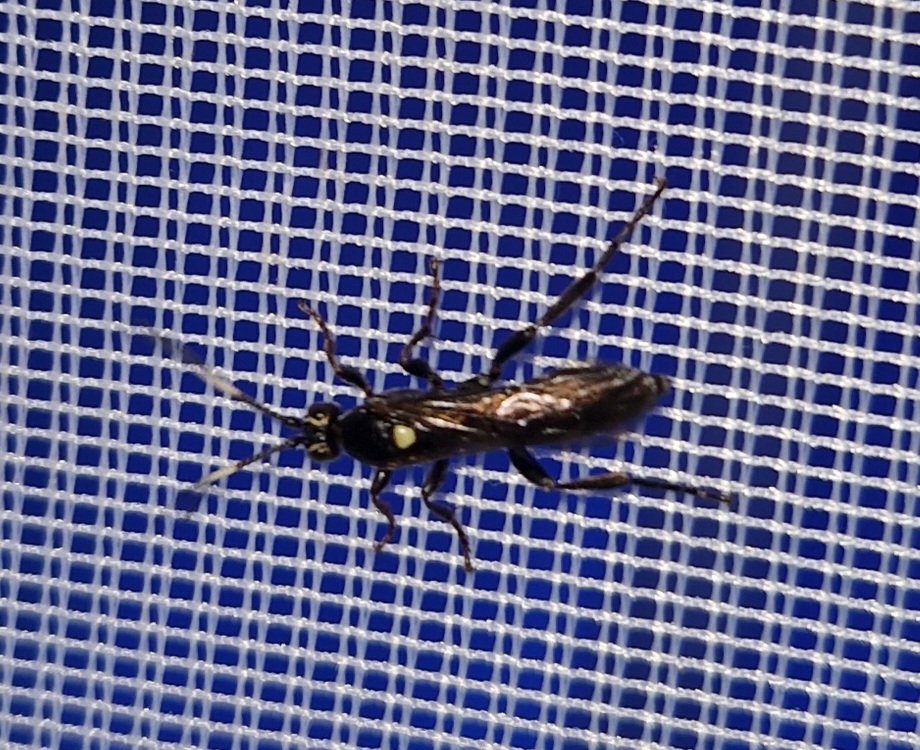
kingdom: Animalia
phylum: Arthropoda
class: Insecta
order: Hymenoptera
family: Ichneumonidae
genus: Cratichneumon
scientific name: Cratichneumon luteiventris
